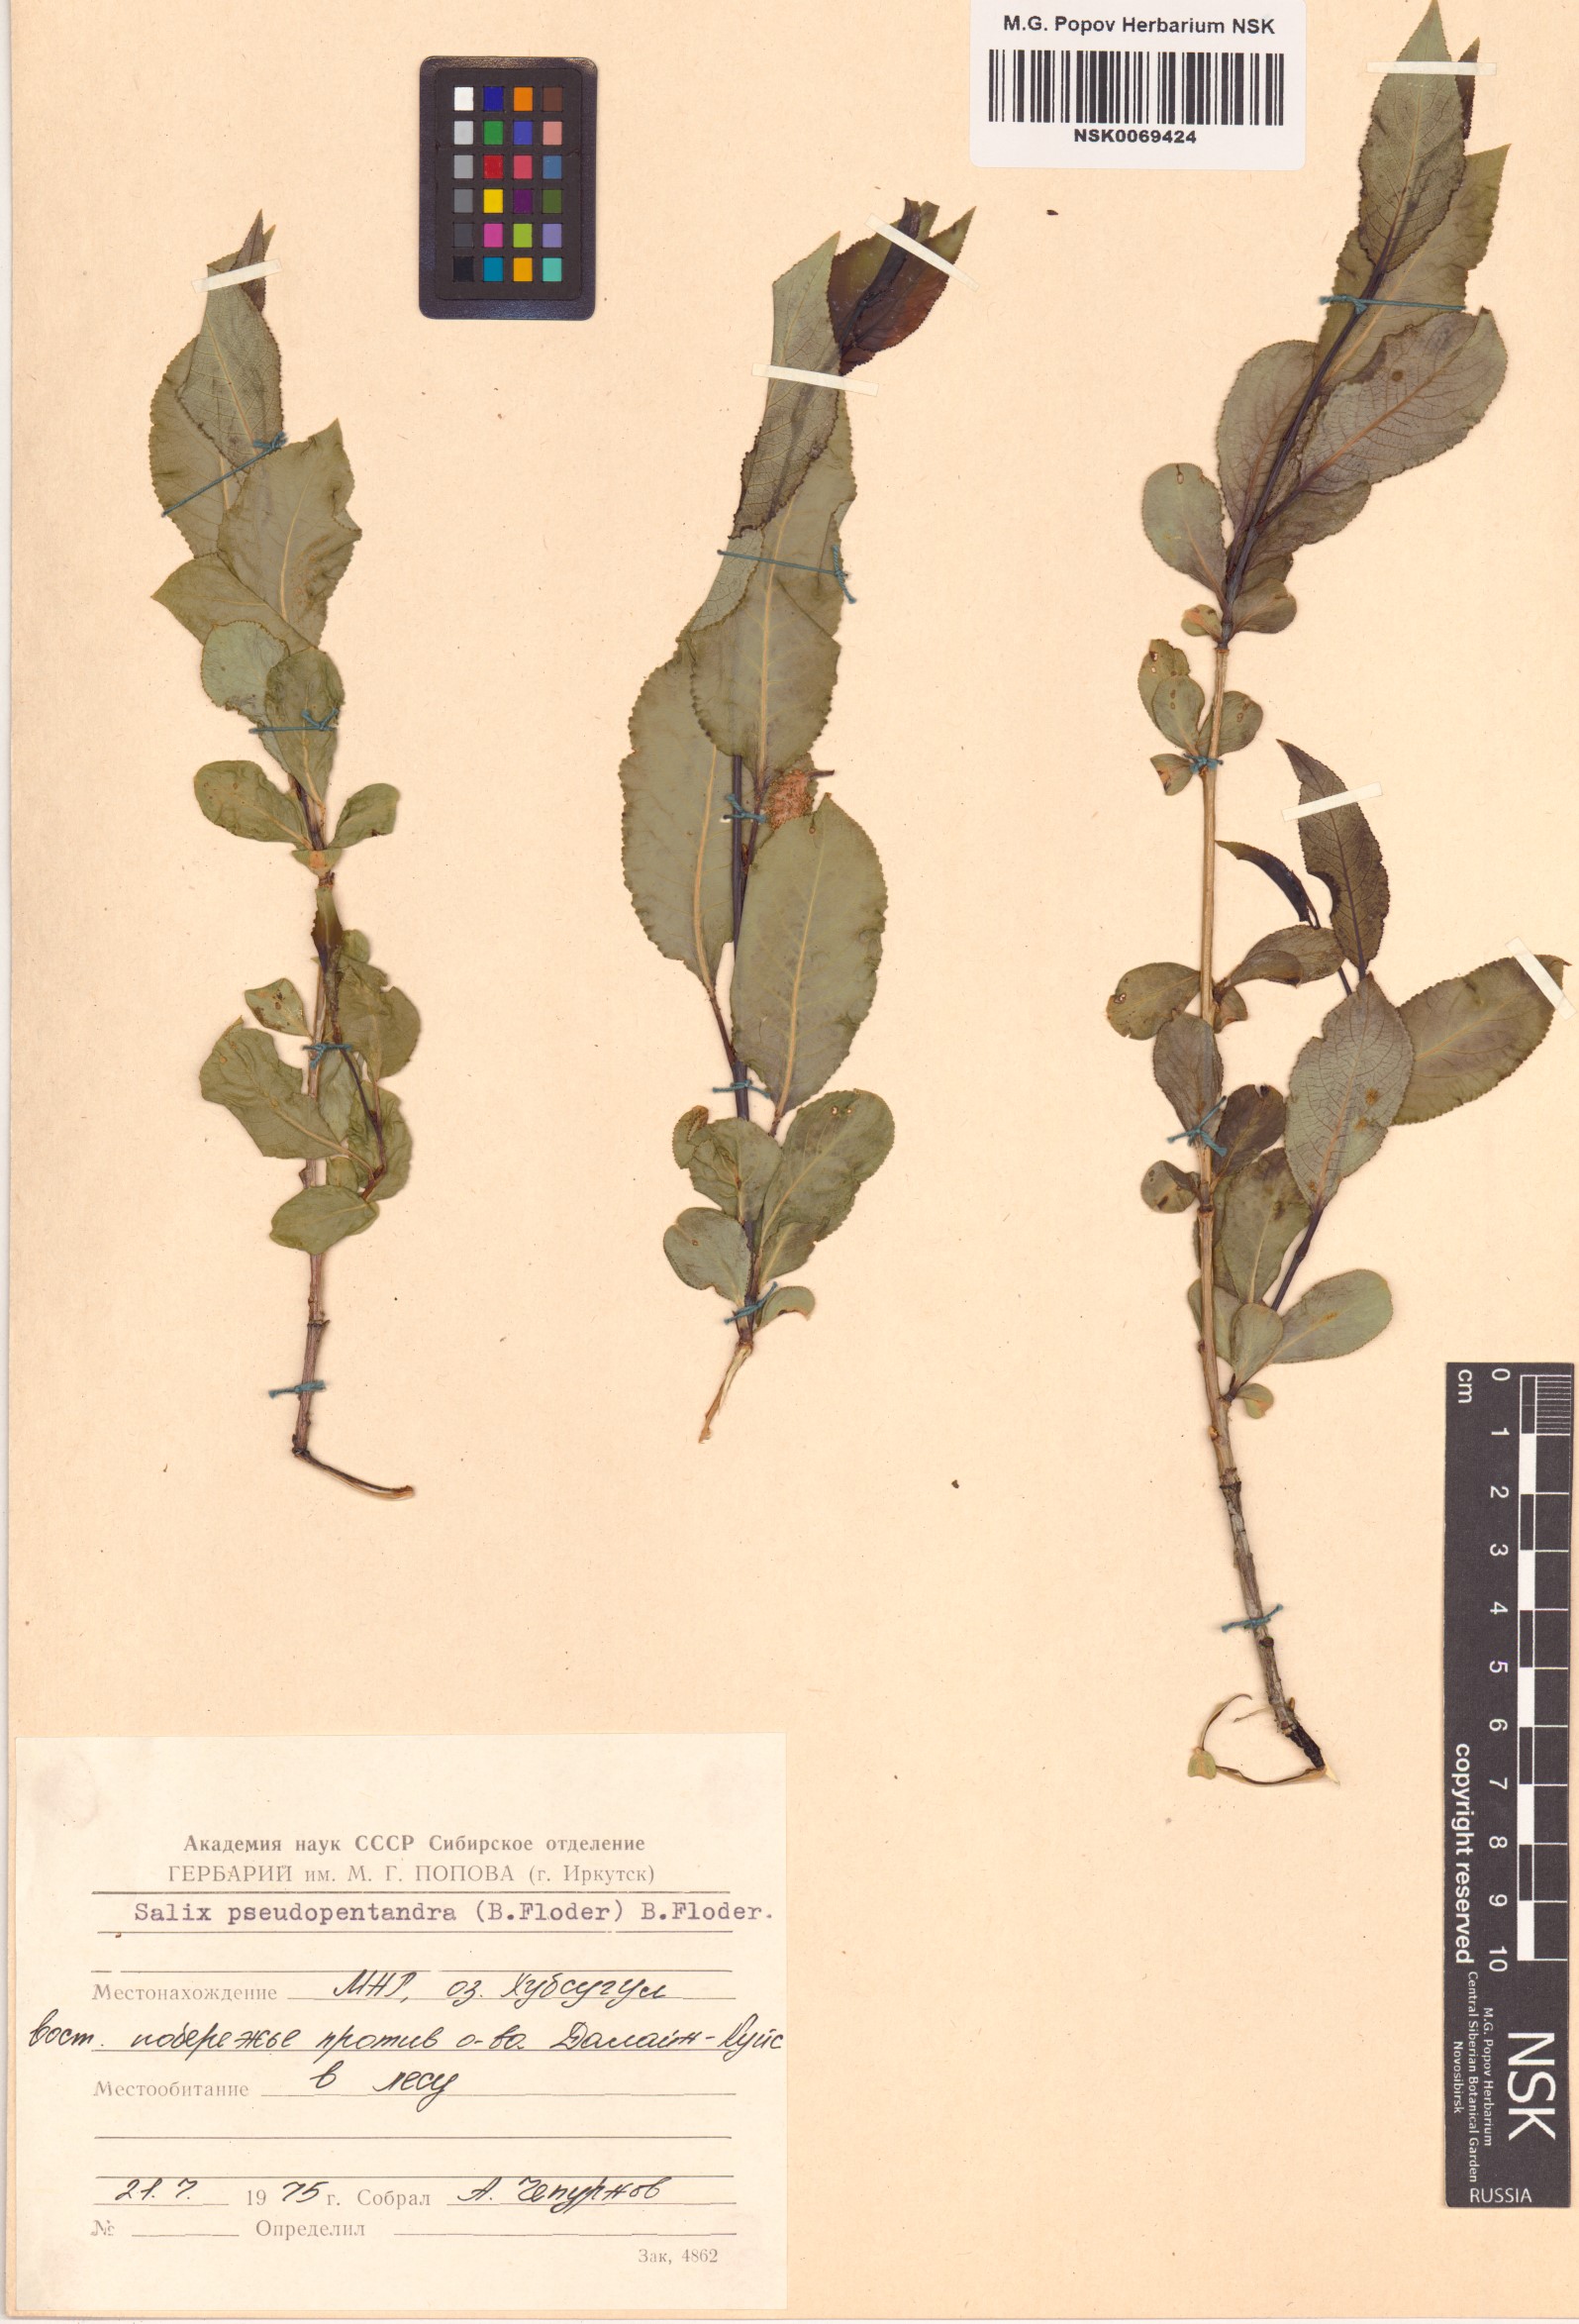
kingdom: Plantae
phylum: Tracheophyta
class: Magnoliopsida
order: Malpighiales
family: Salicaceae
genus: Salix
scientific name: Salix pseudopentandra
